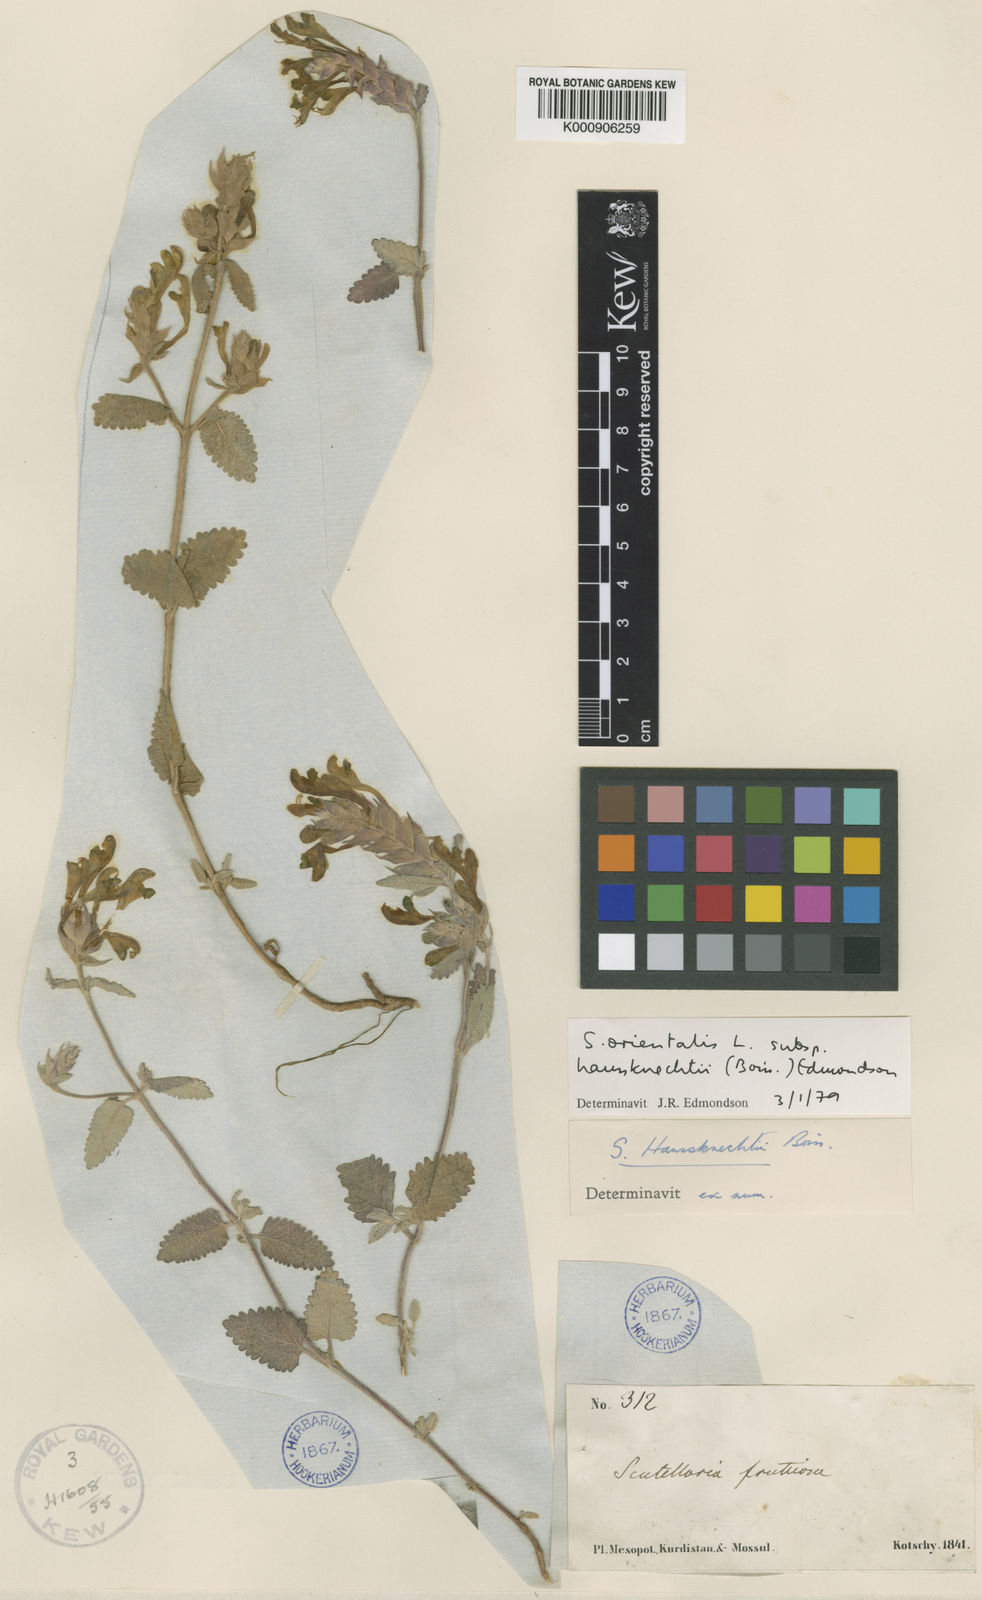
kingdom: Plantae
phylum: Tracheophyta
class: Magnoliopsida
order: Lamiales
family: Lamiaceae
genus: Scutellaria
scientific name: Scutellaria orientalis
